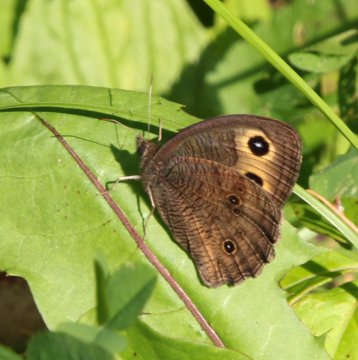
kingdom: Animalia
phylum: Arthropoda
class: Insecta
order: Lepidoptera
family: Nymphalidae
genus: Cercyonis
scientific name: Cercyonis pegala
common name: Common Wood-Nymph
